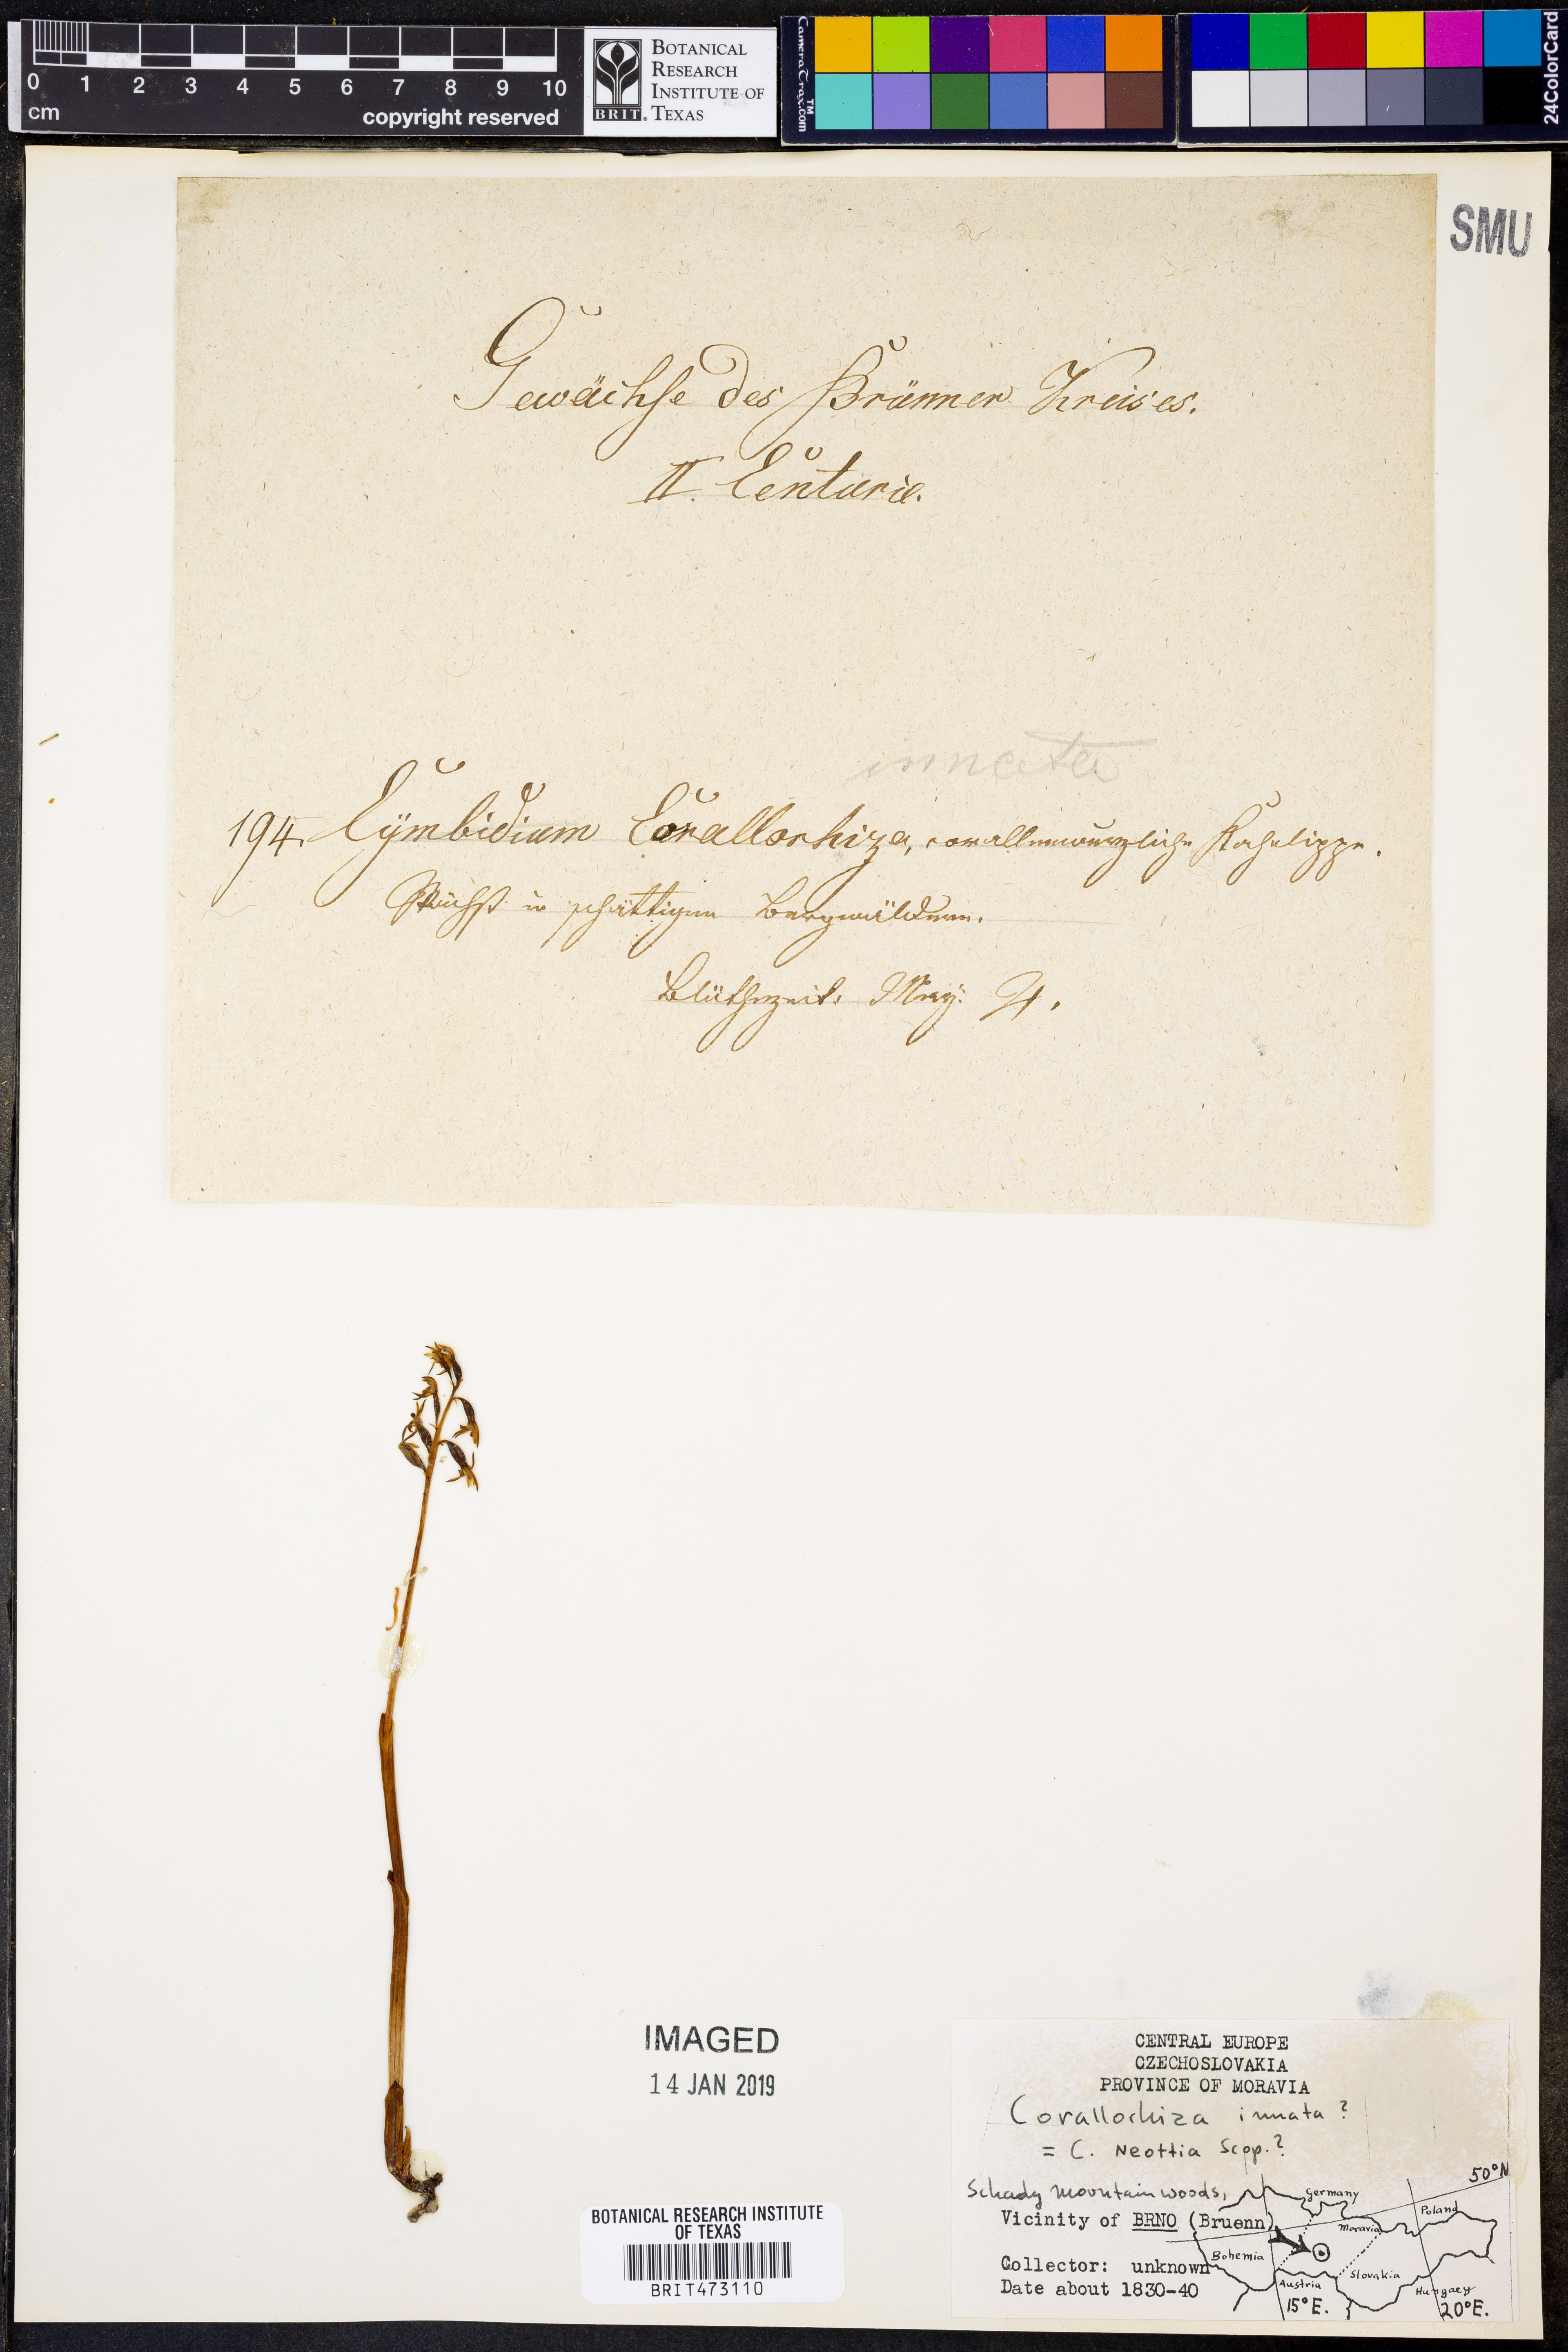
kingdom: Plantae
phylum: Tracheophyta
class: Liliopsida
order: Asparagales
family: Orchidaceae
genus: Corallorhiza
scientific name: Corallorhiza trifida
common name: Yellow coralroot
